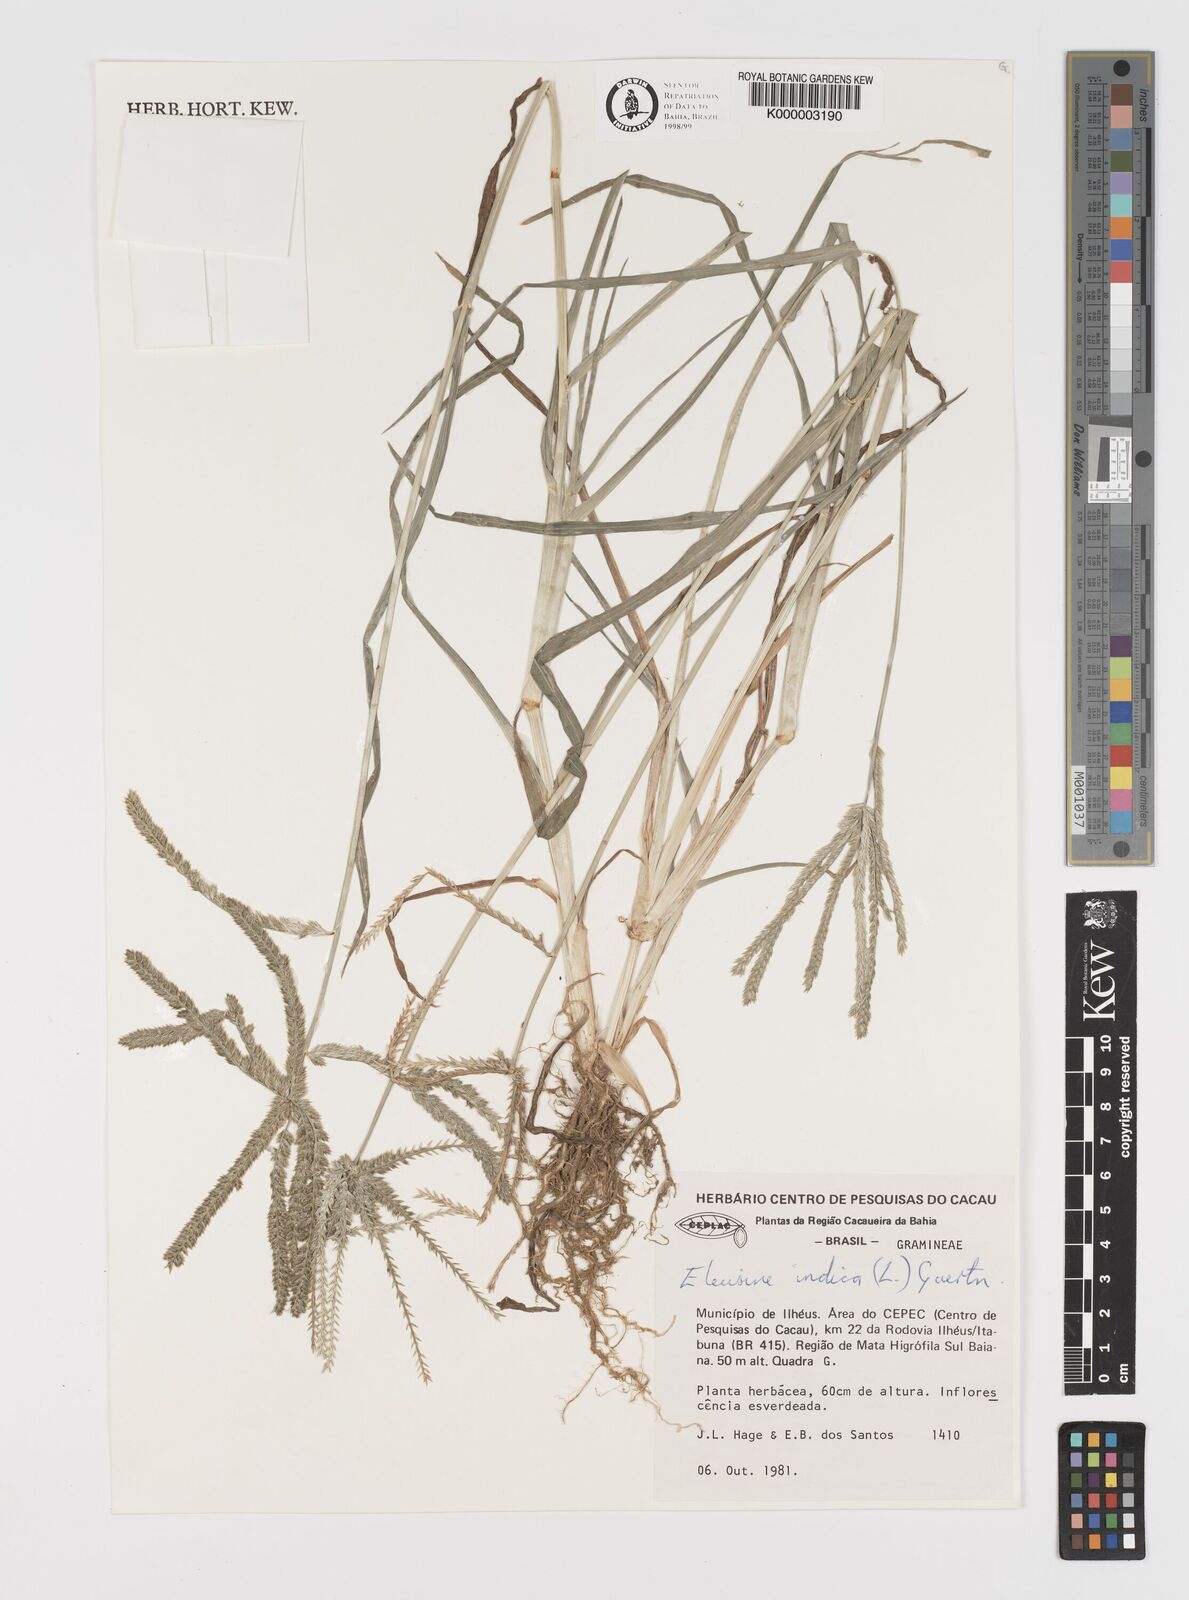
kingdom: Plantae
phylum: Tracheophyta
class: Liliopsida
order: Poales
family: Poaceae
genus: Eleusine
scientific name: Eleusine indica
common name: Yard-grass
